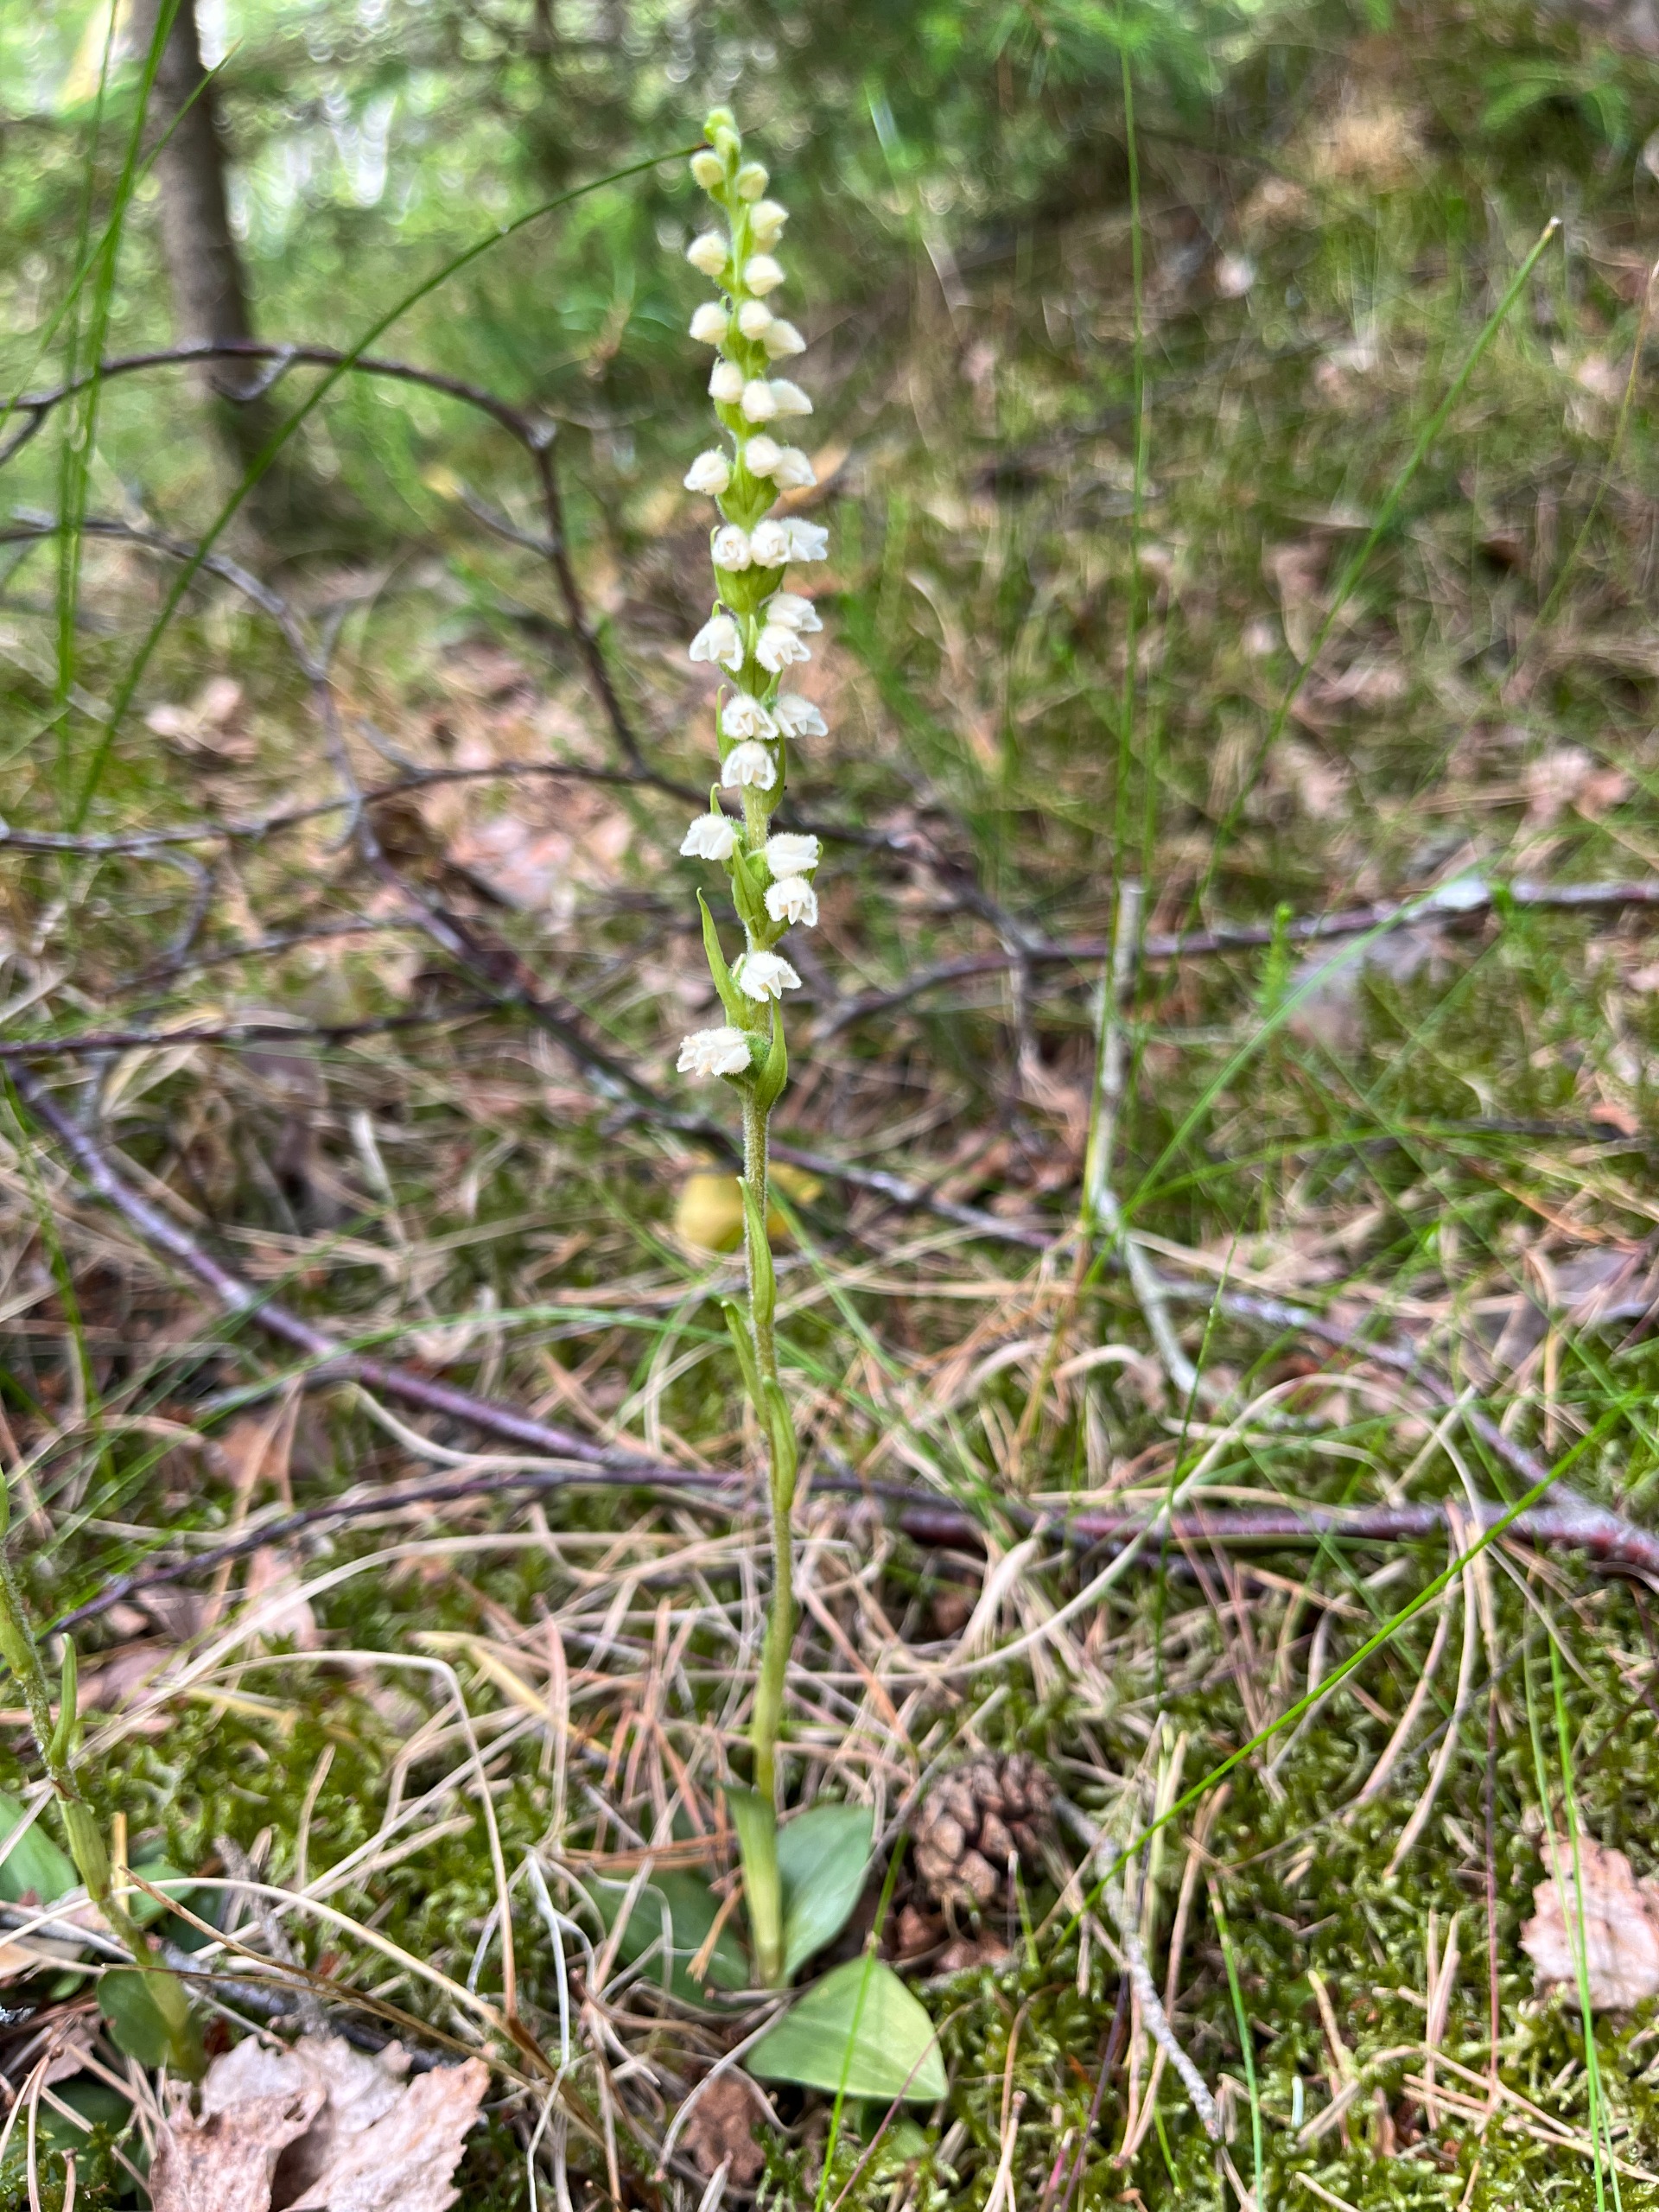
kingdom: Plantae
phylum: Tracheophyta
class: Liliopsida
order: Asparagales
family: Orchidaceae
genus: Goodyera
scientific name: Goodyera repens
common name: Knærod
